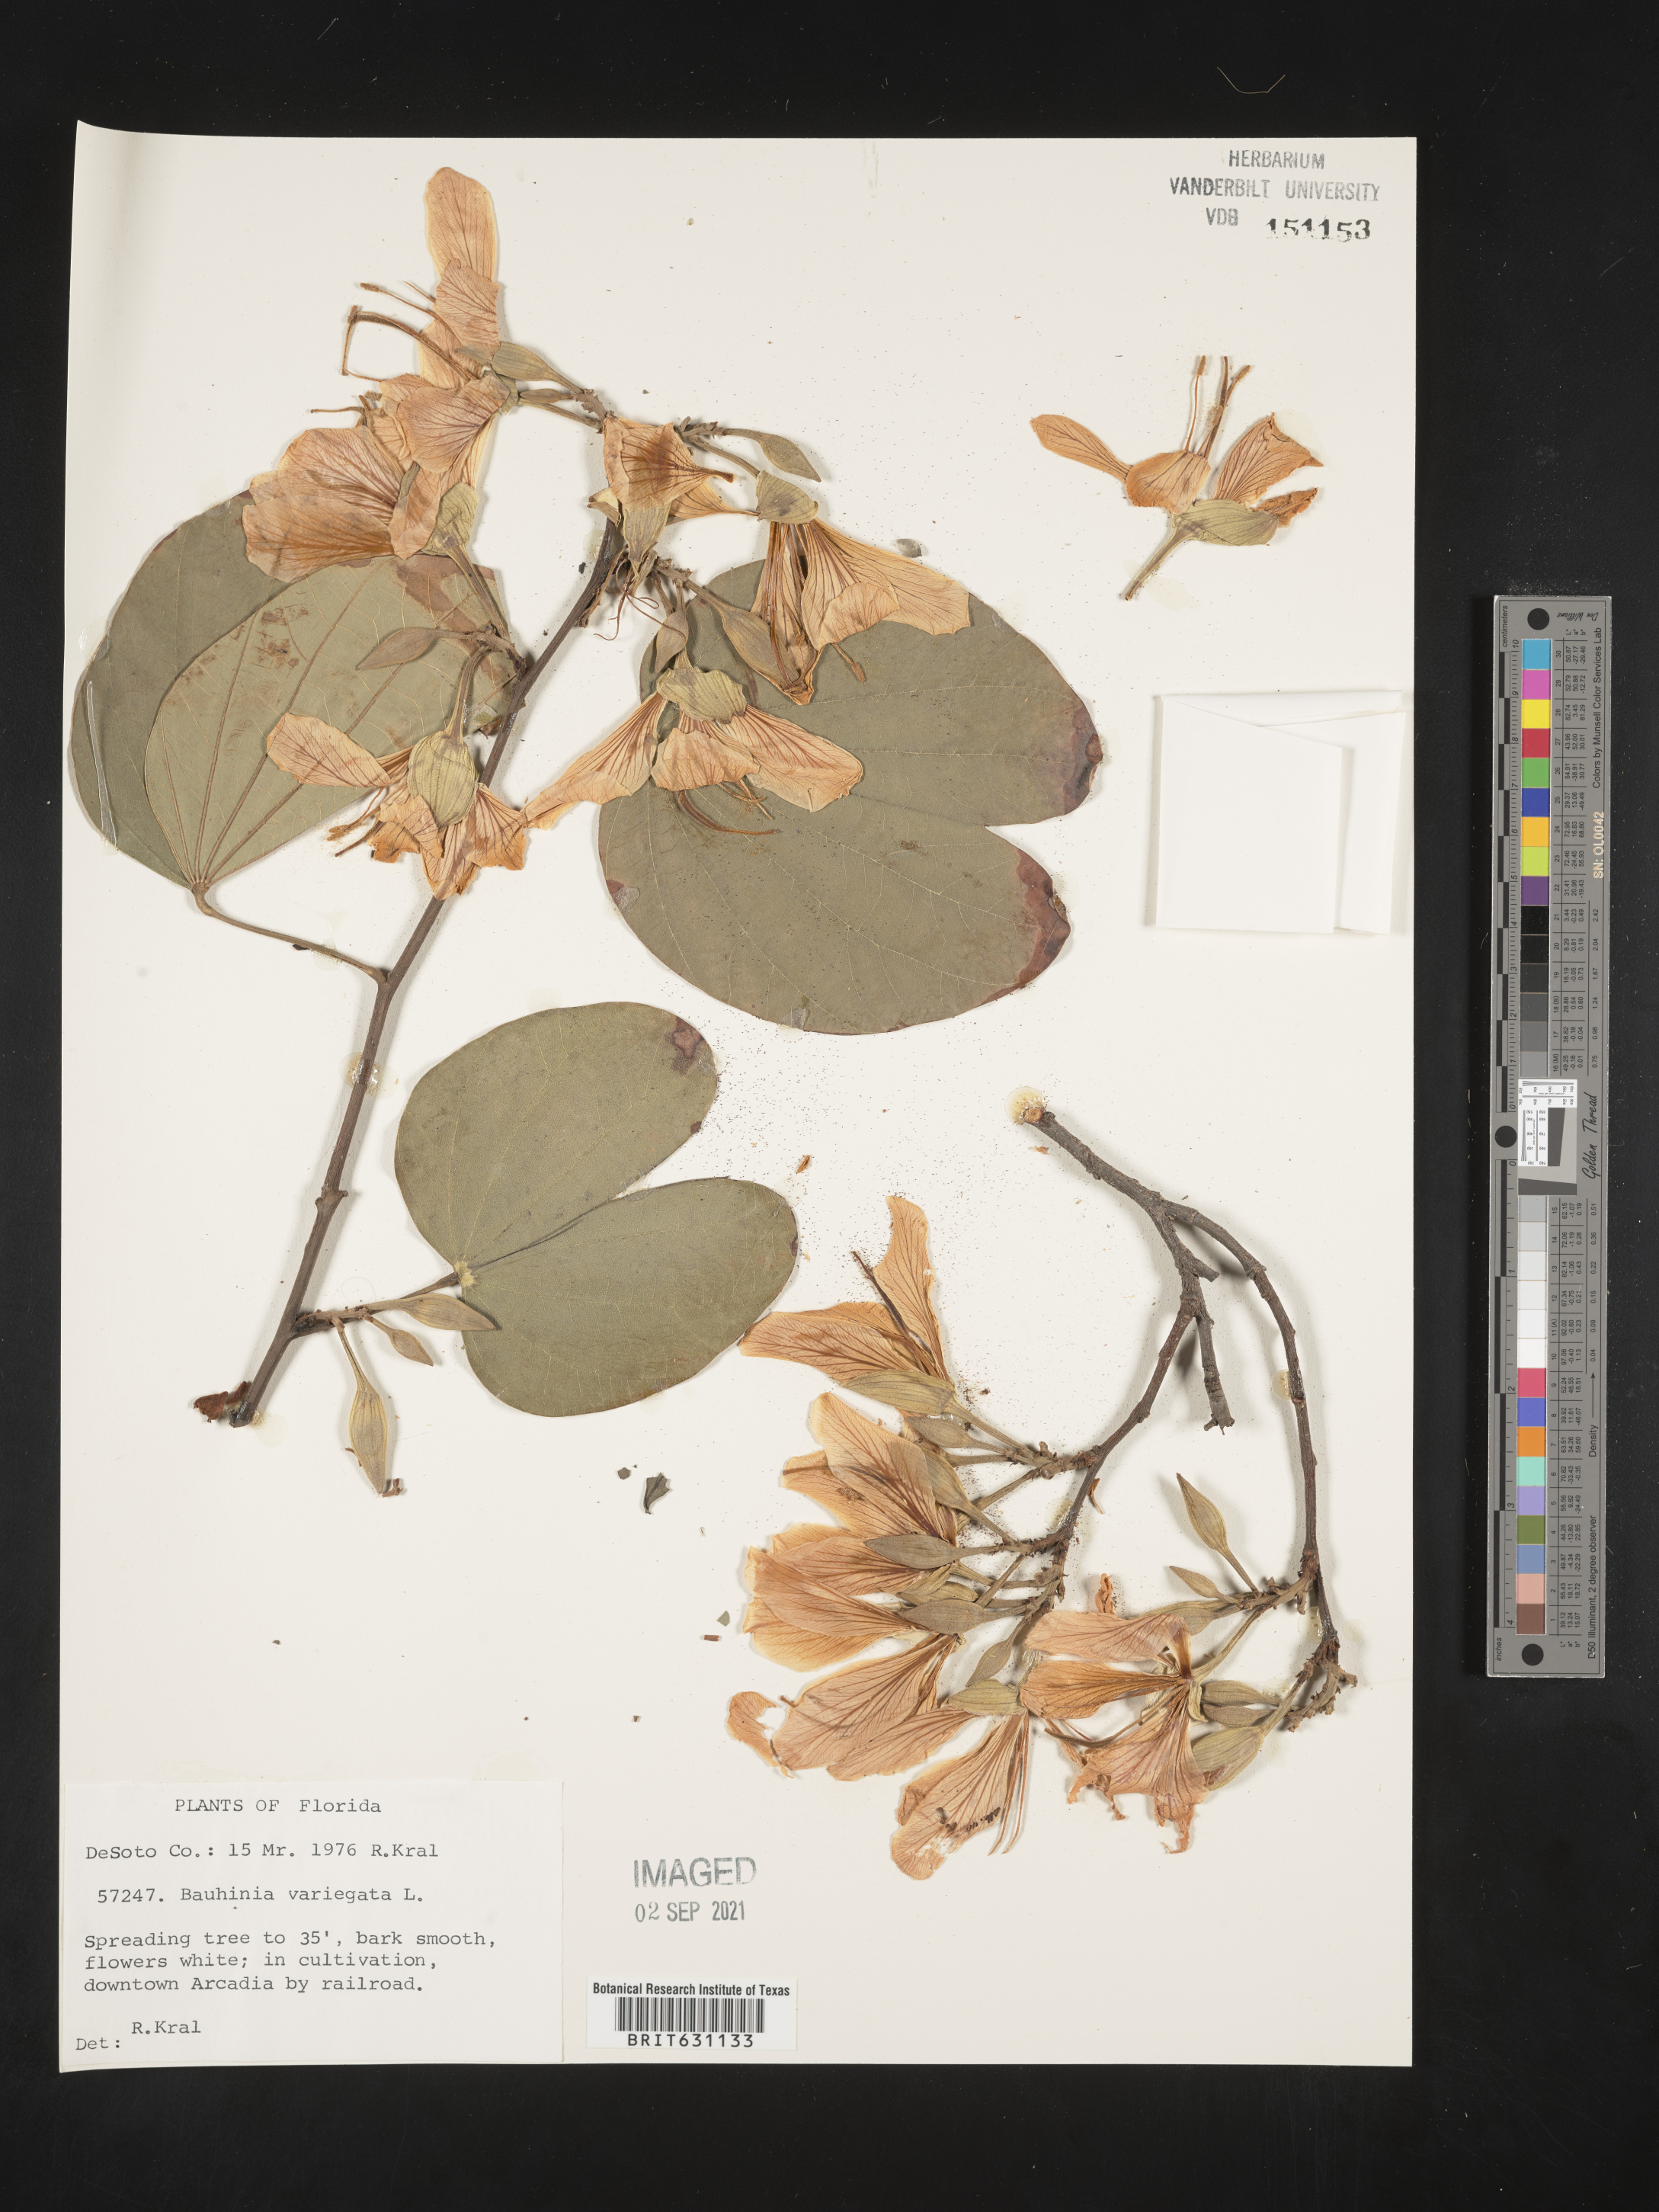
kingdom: Plantae
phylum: Tracheophyta
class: Magnoliopsida
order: Fabales
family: Fabaceae
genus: Bauhinia
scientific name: Bauhinia
